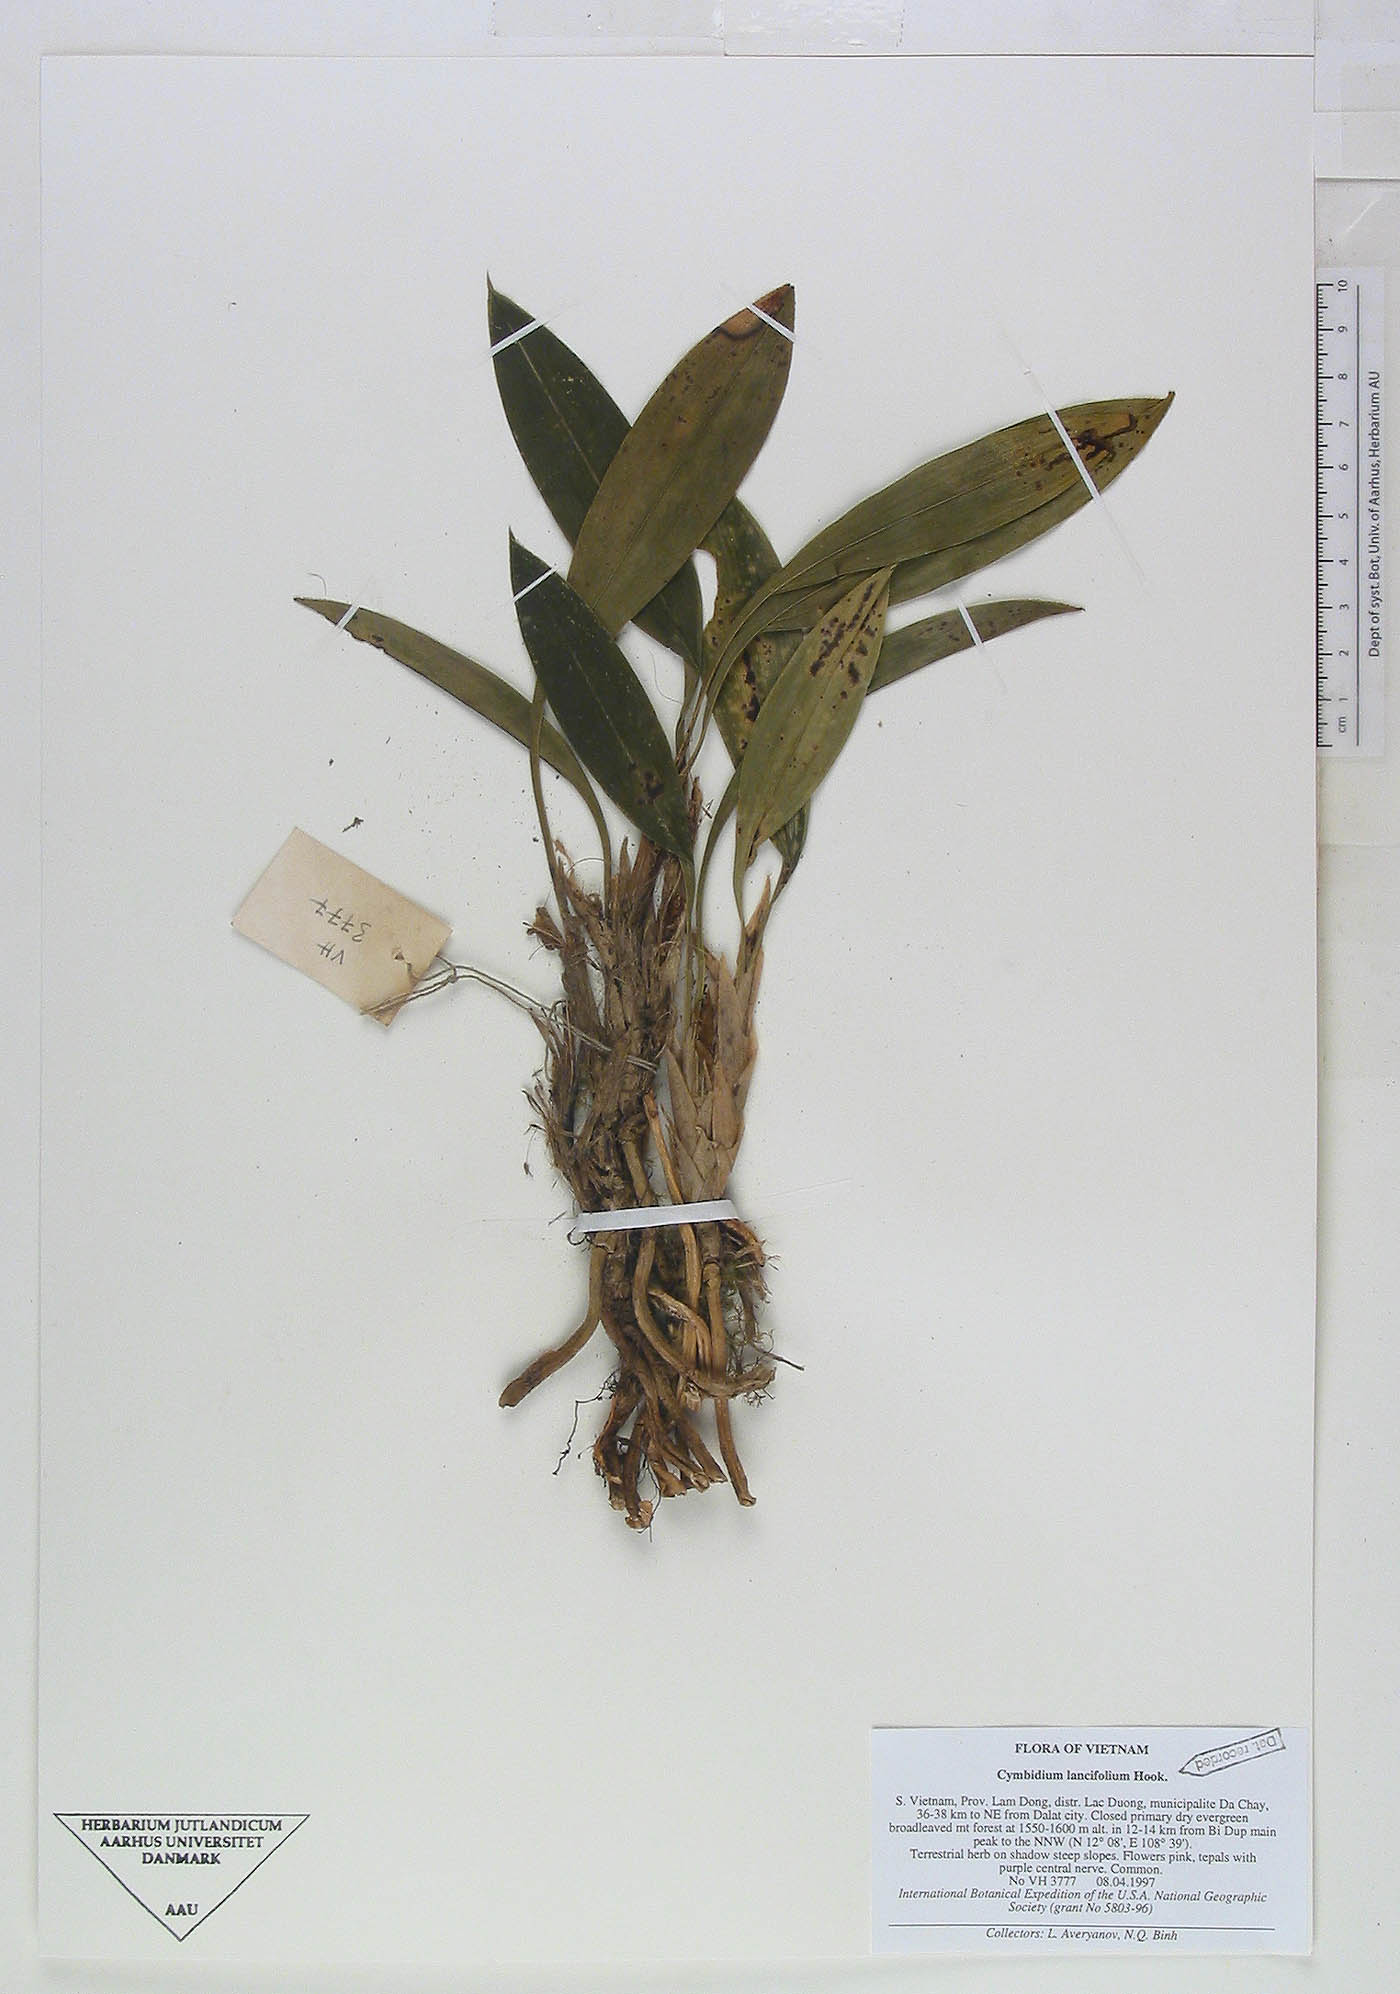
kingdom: Plantae
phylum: Tracheophyta
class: Liliopsida
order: Asparagales
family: Orchidaceae
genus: Cymbidium
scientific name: Cymbidium lancifolium
